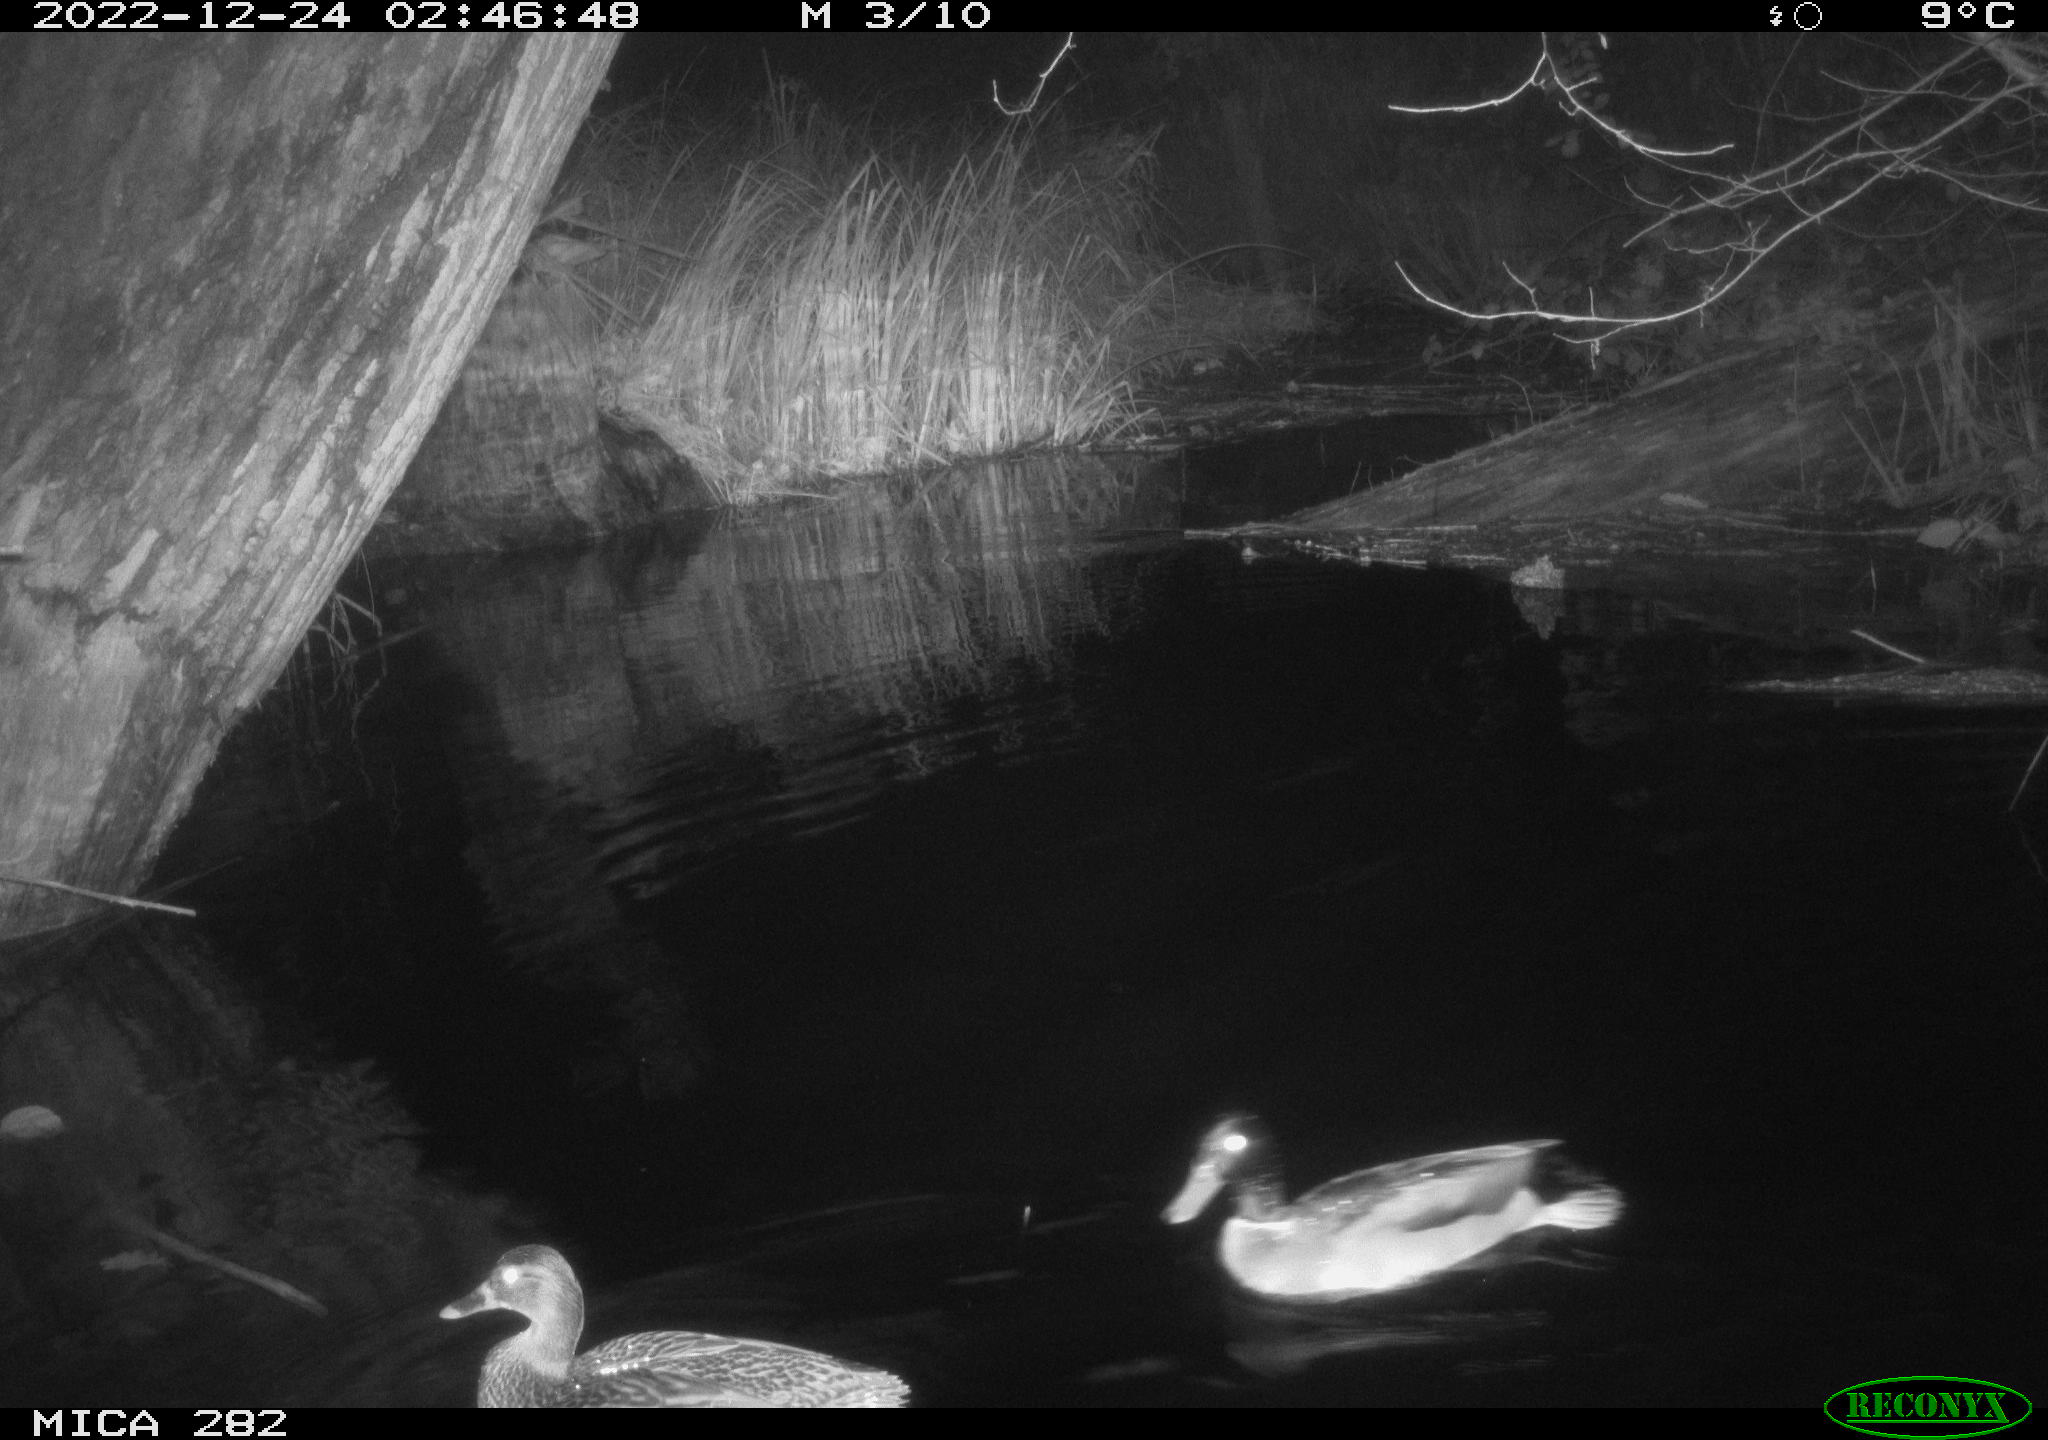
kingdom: Animalia
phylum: Chordata
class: Aves
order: Anseriformes
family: Anatidae
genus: Anas
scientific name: Anas
